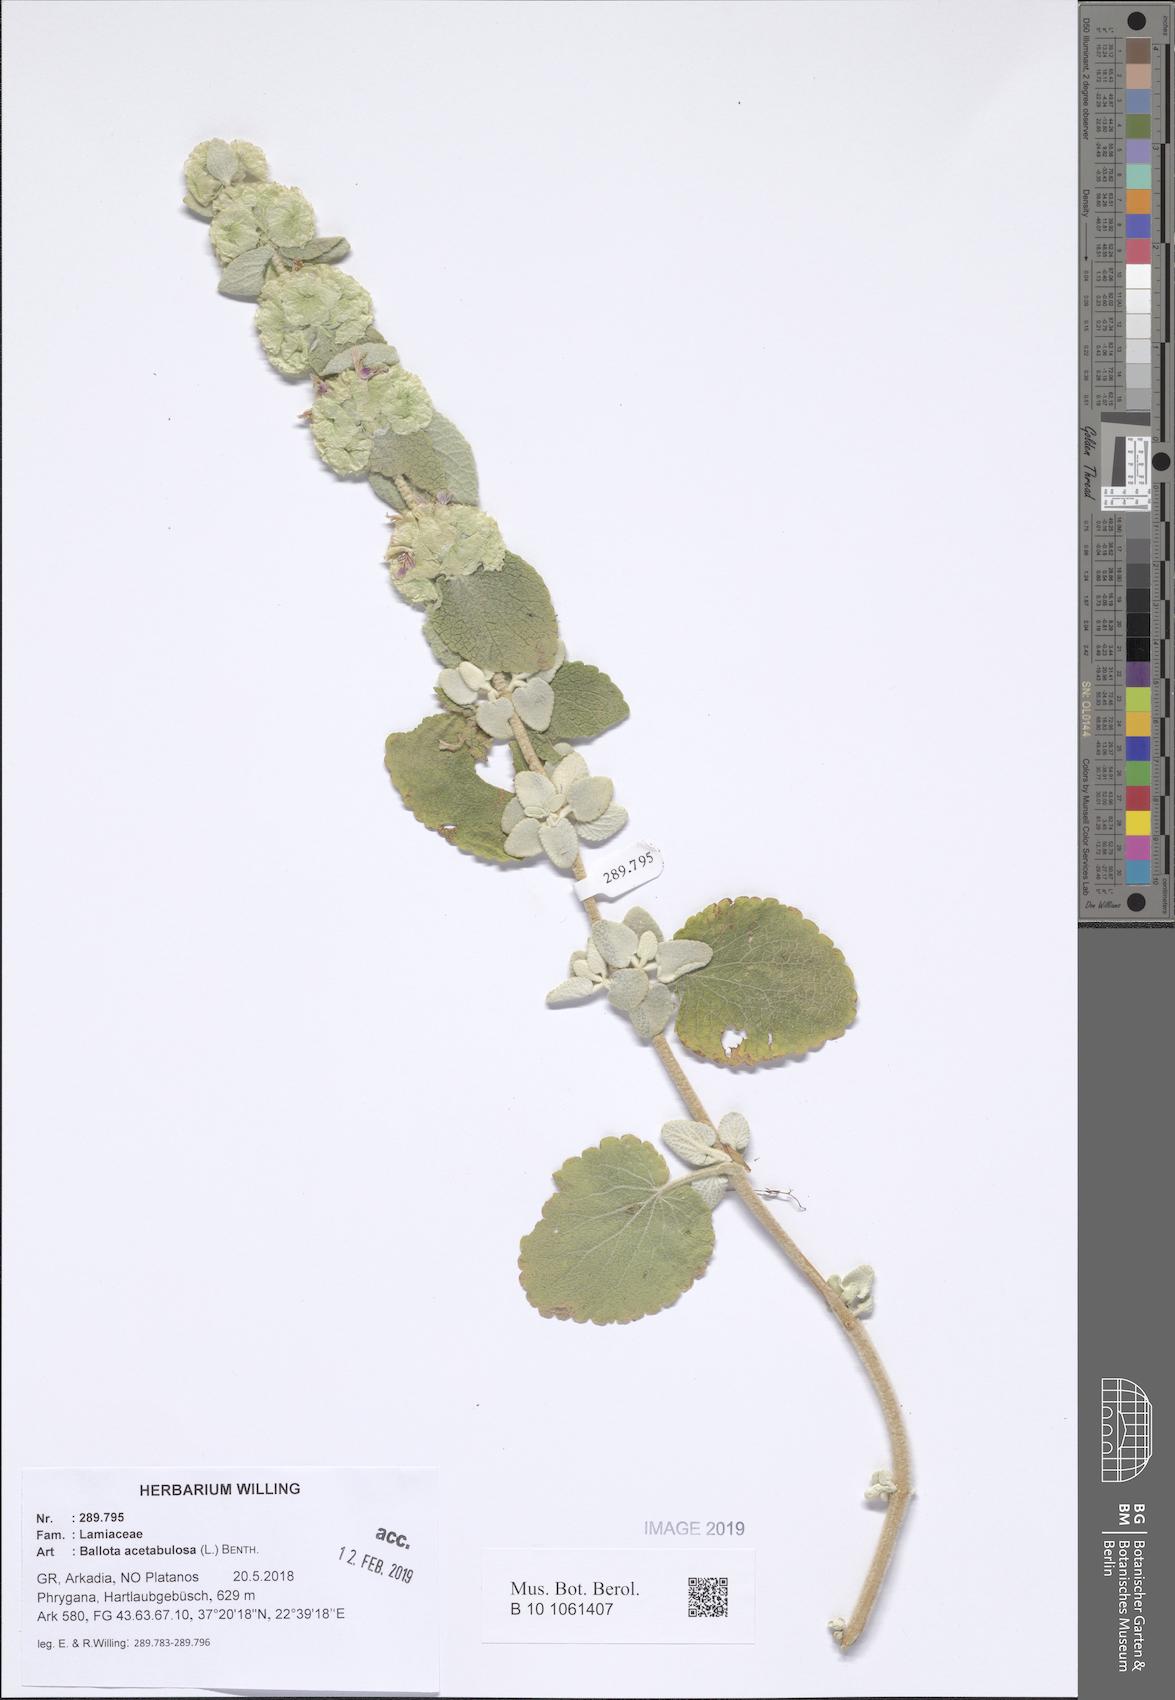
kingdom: Plantae
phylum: Tracheophyta
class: Magnoliopsida
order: Lamiales
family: Lamiaceae
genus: Pseudodictamnus
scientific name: Pseudodictamnus acetabulosus
